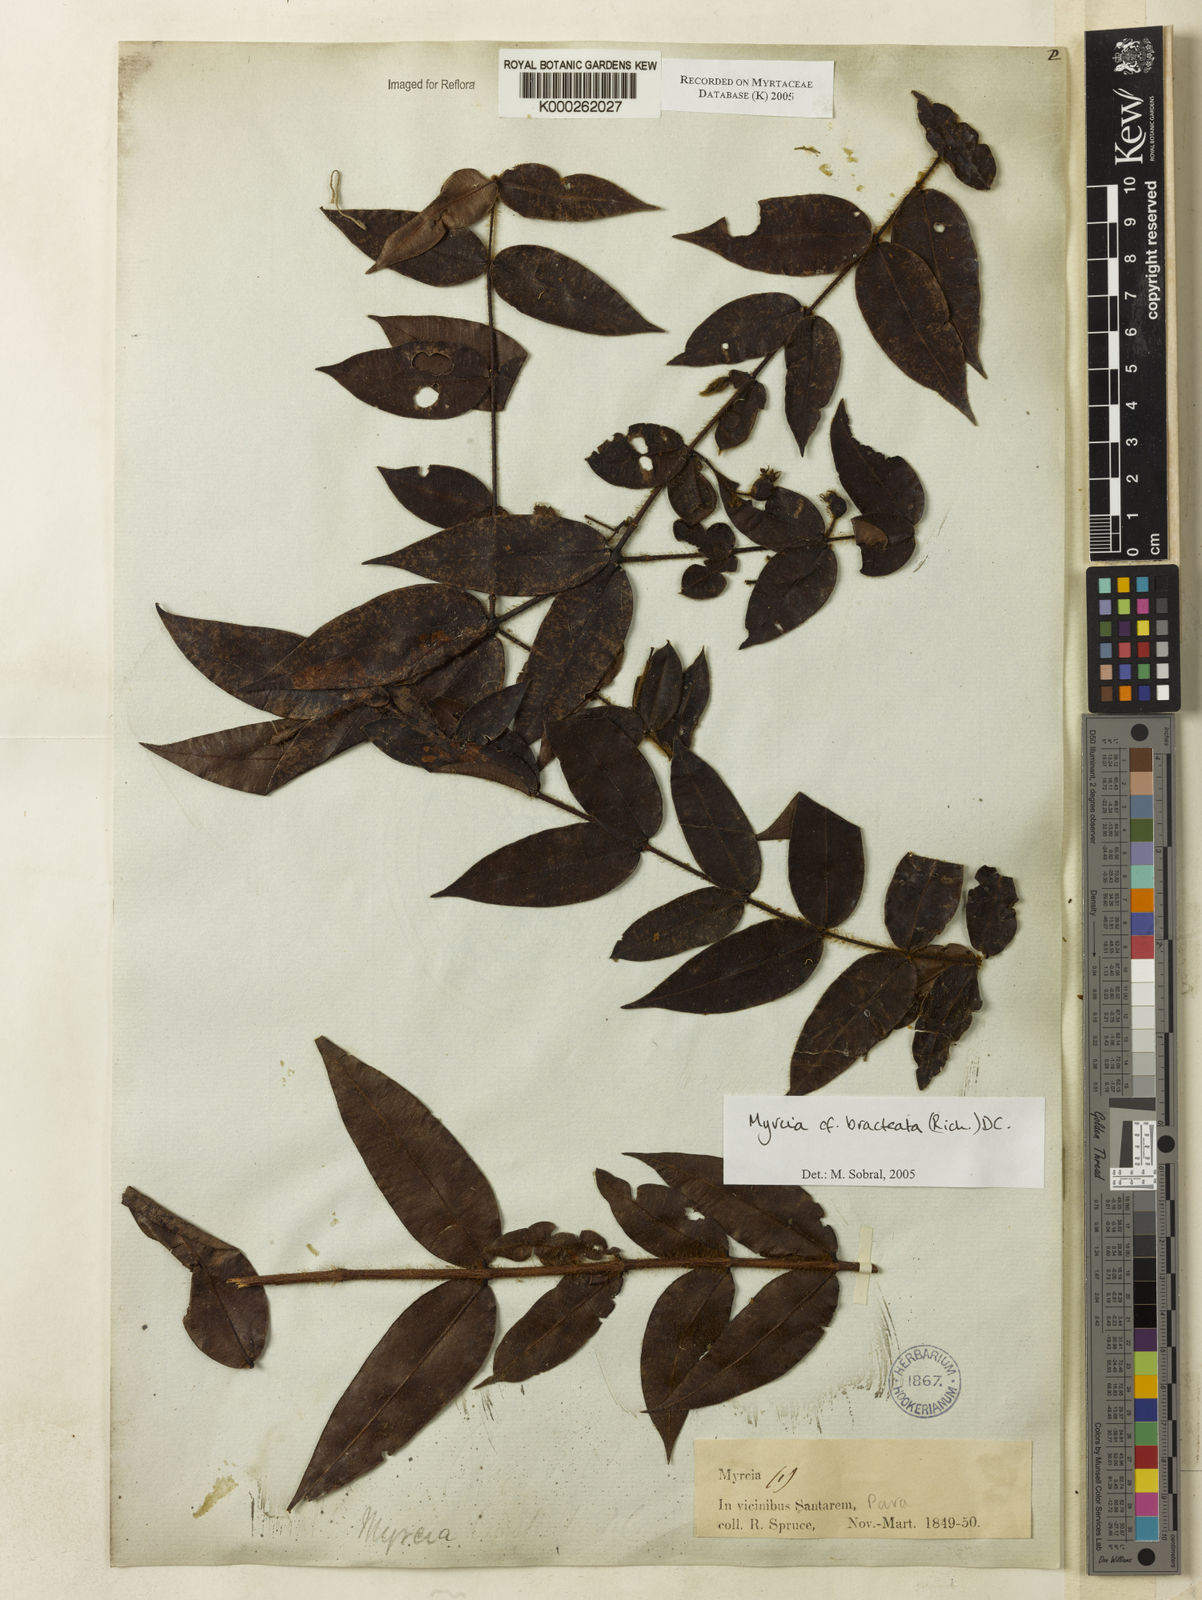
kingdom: Plantae
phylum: Tracheophyta
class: Magnoliopsida
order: Myrtales
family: Myrtaceae
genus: Myrcia
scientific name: Myrcia bracteata
